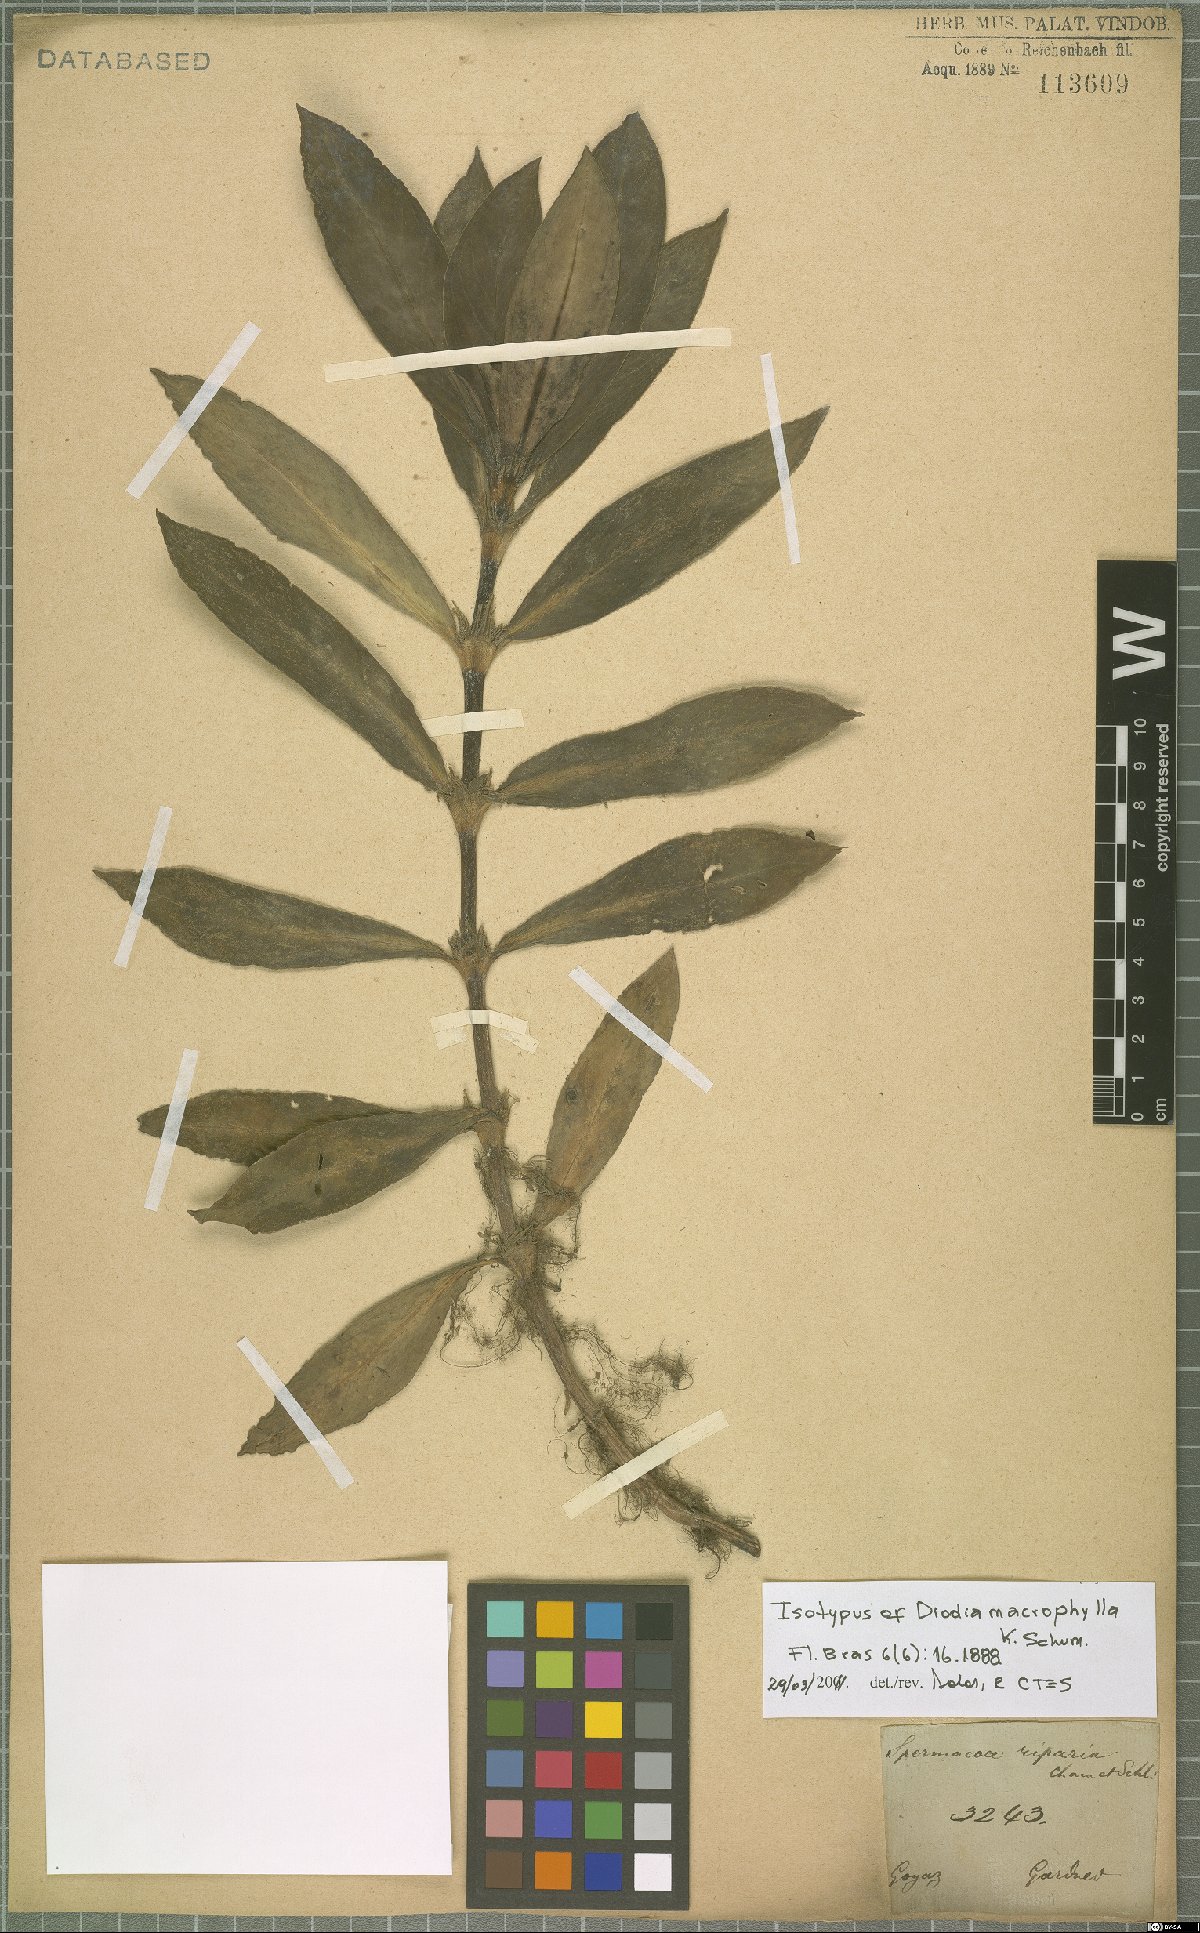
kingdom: Plantae
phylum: Tracheophyta
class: Magnoliopsida
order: Gentianales
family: Rubiaceae
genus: Diodia
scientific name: Diodia macrophylla
